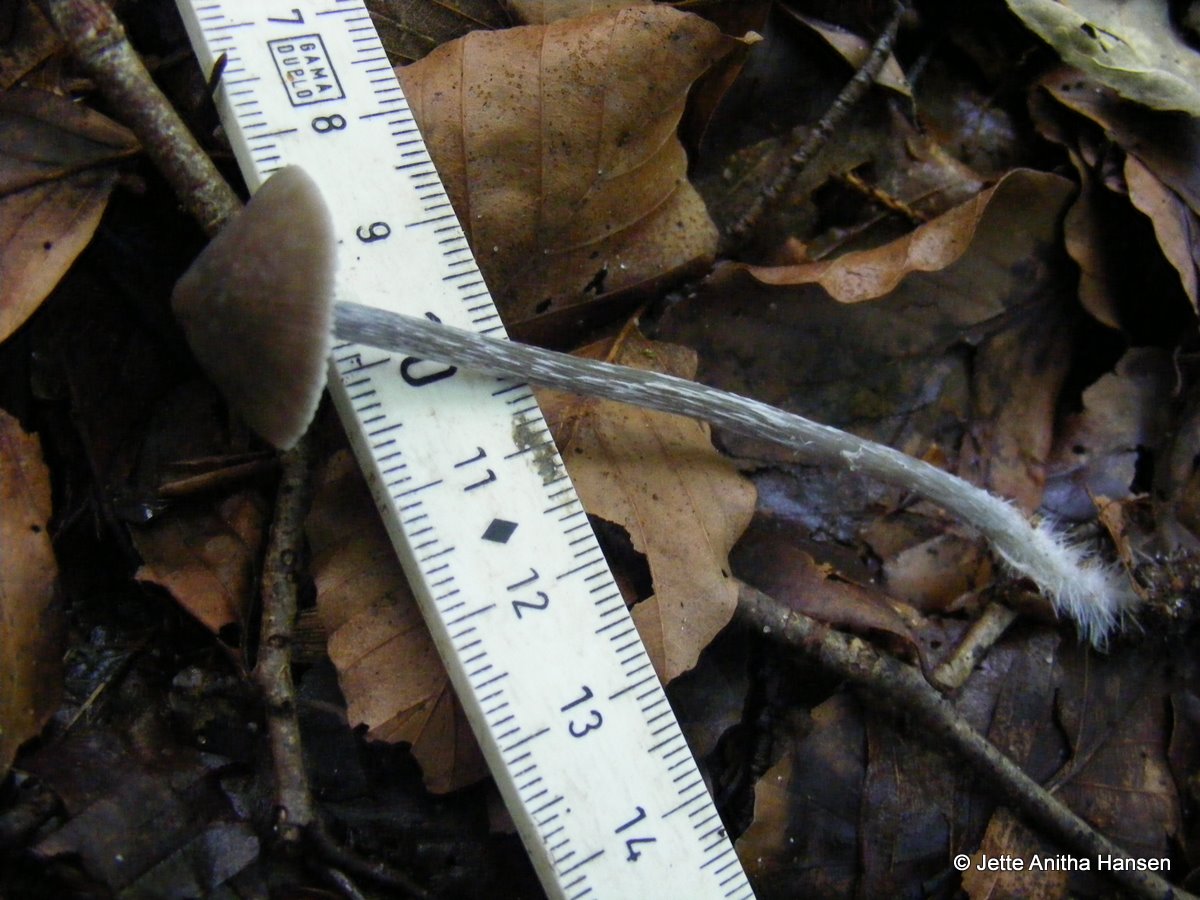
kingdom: Fungi
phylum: Basidiomycota
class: Agaricomycetes
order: Agaricales
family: Lyophyllaceae
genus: Tephrocybe
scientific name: Tephrocybe rancida
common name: mel-gråblad
